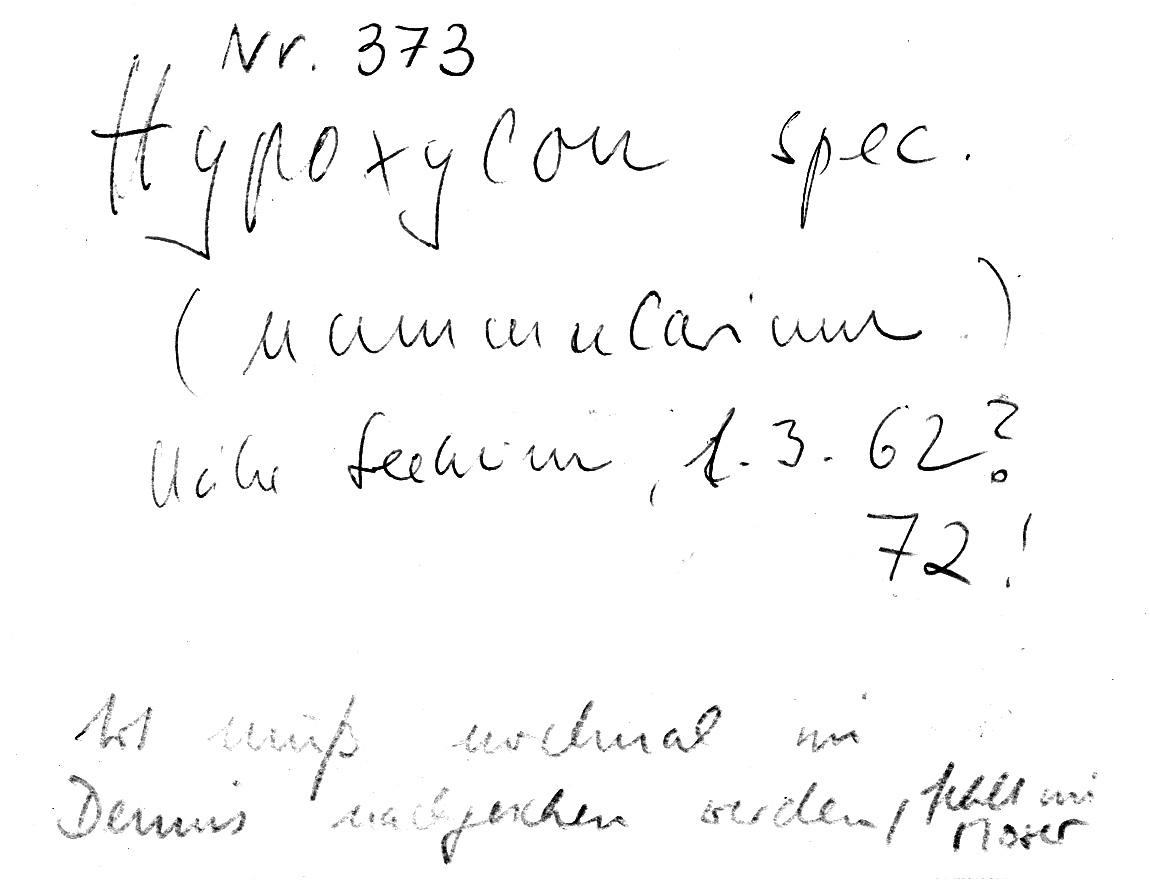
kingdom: Fungi
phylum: Ascomycota
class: Sordariomycetes
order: Xylariales
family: Graphostromataceae
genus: Biscogniauxia
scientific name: Biscogniauxia nummularia
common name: Beech tarcrust
